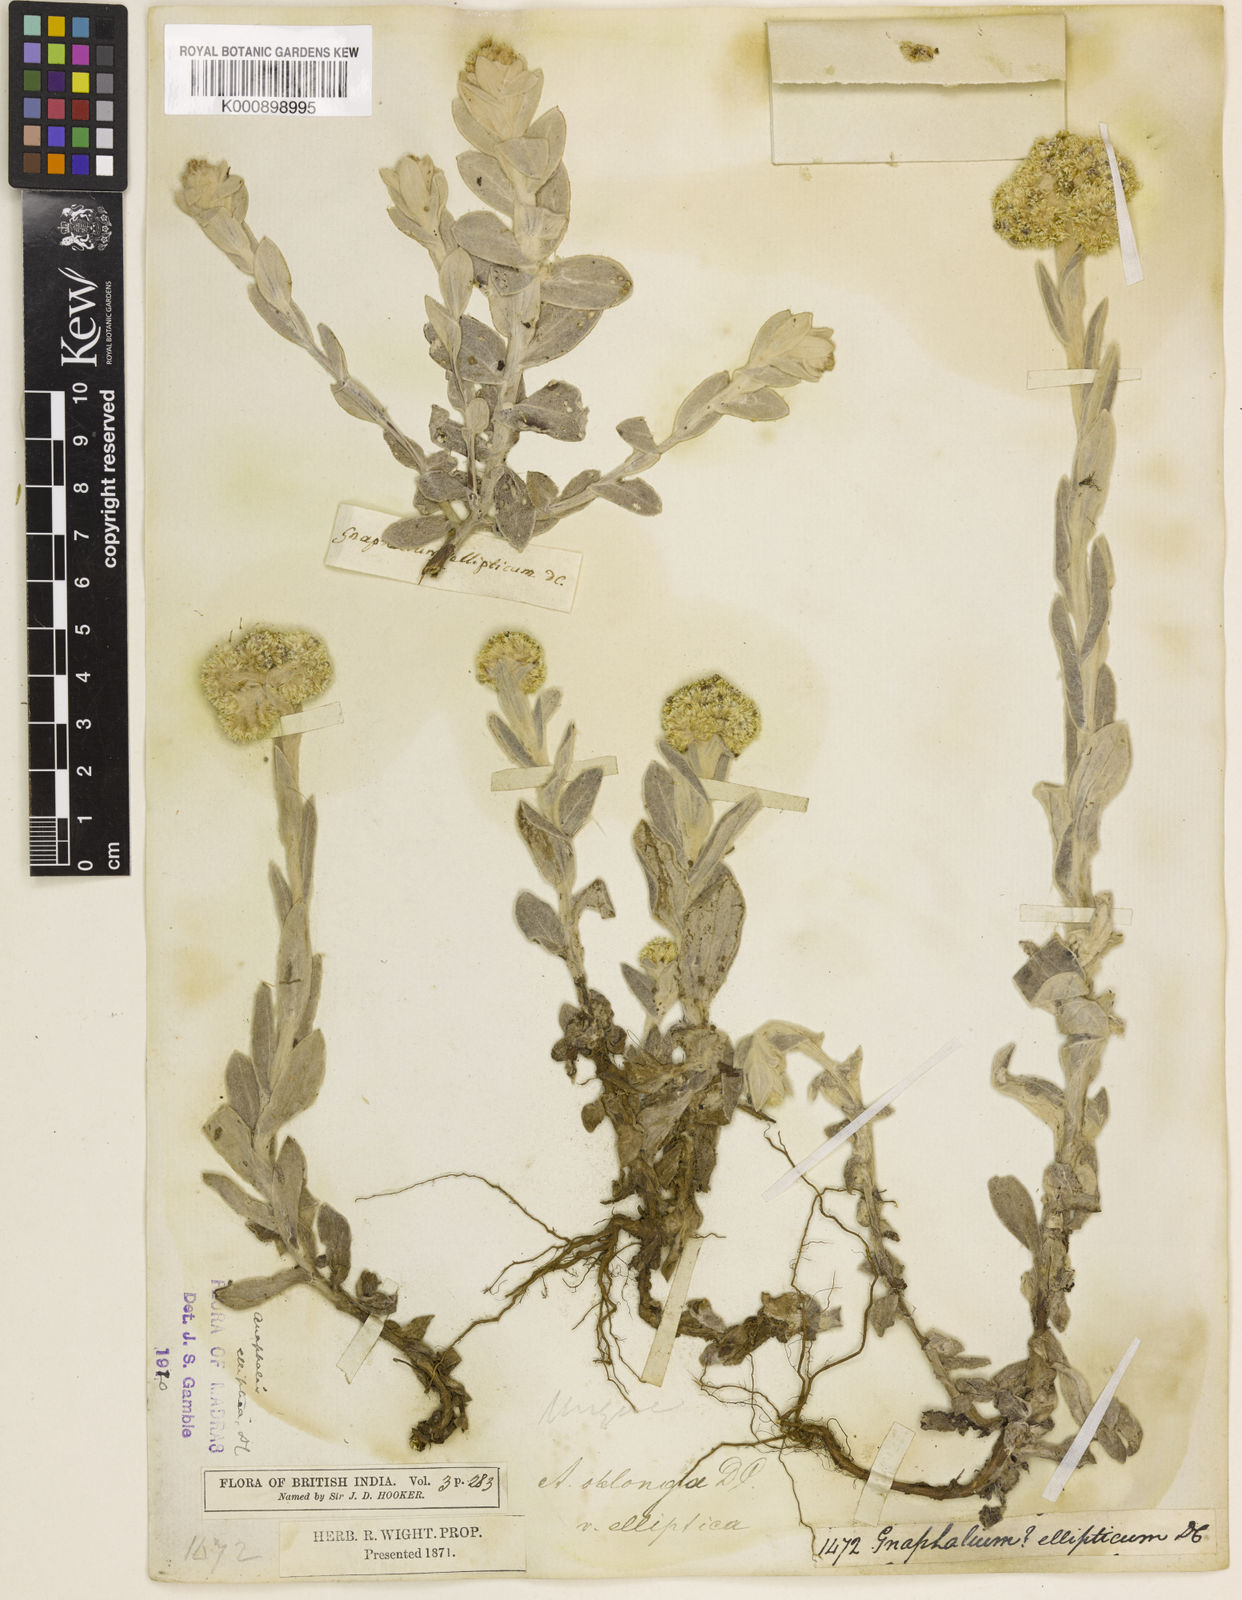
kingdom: Plantae
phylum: Tracheophyta
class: Magnoliopsida
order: Asterales
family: Asteraceae
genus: Anaphalis
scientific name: Anaphalis elliptica
